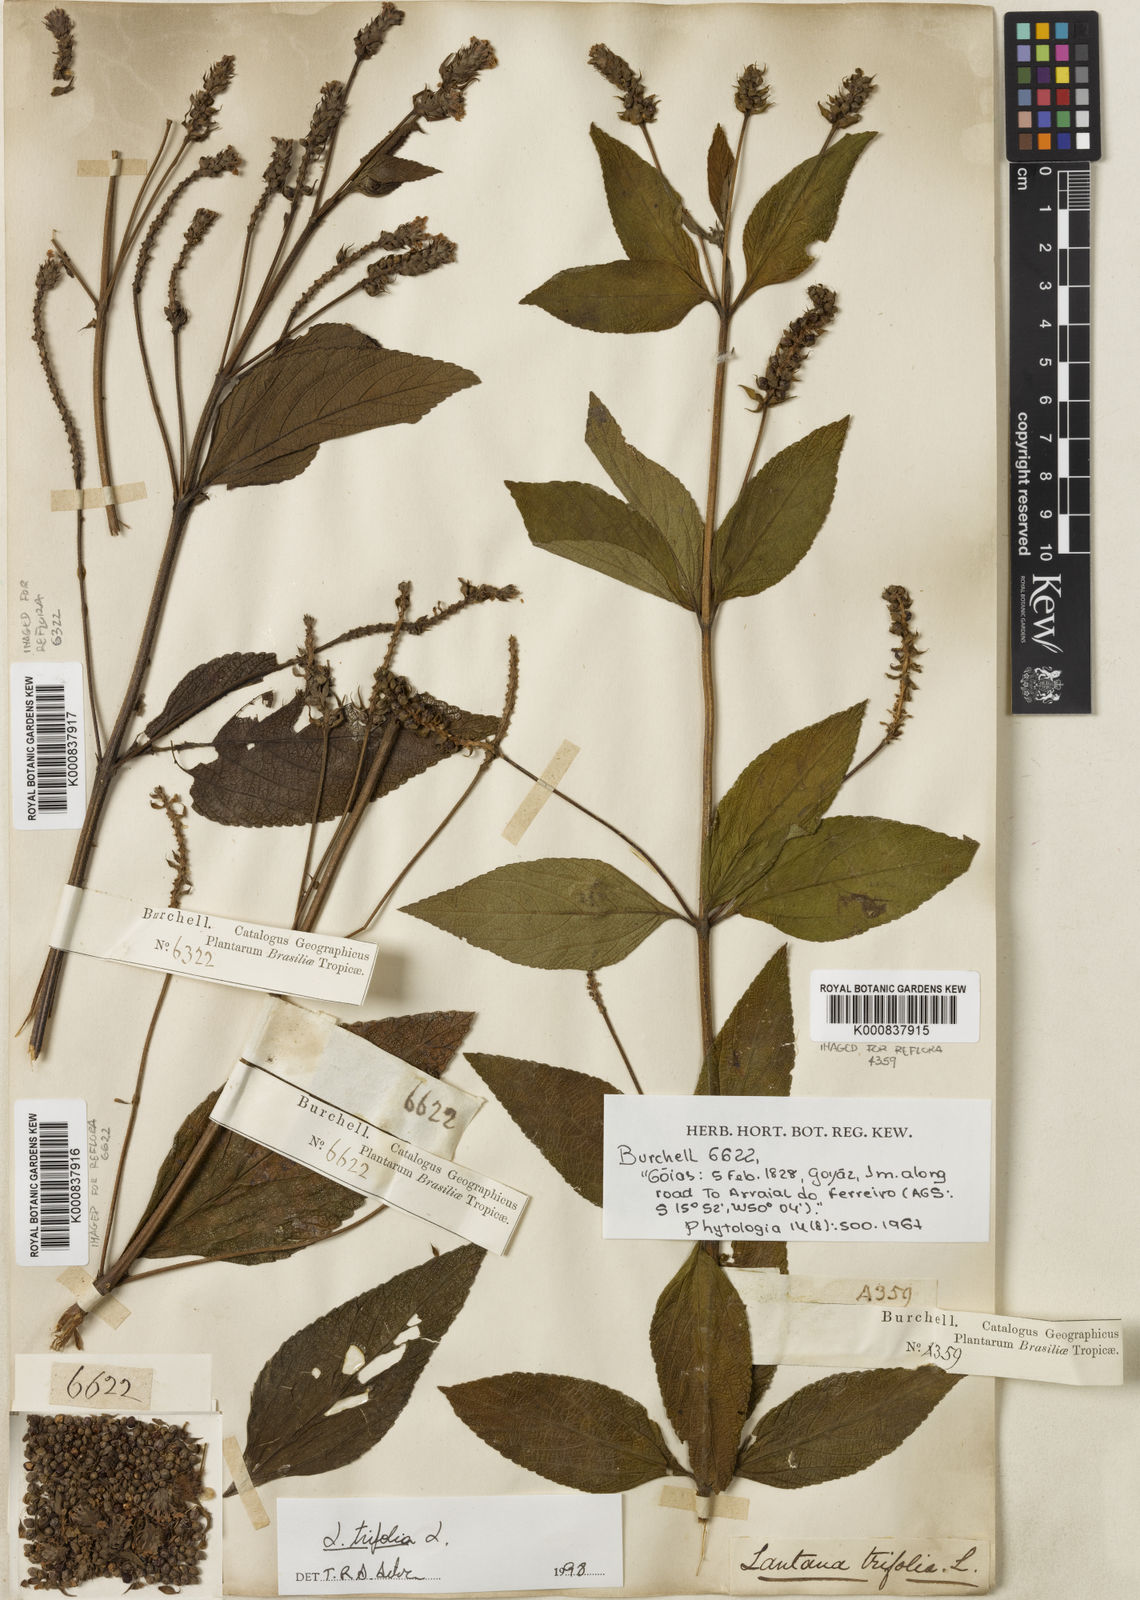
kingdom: Plantae
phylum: Tracheophyta
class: Magnoliopsida
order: Lamiales
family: Verbenaceae
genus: Lantana
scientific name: Lantana trifolia
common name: Sweet-sage
